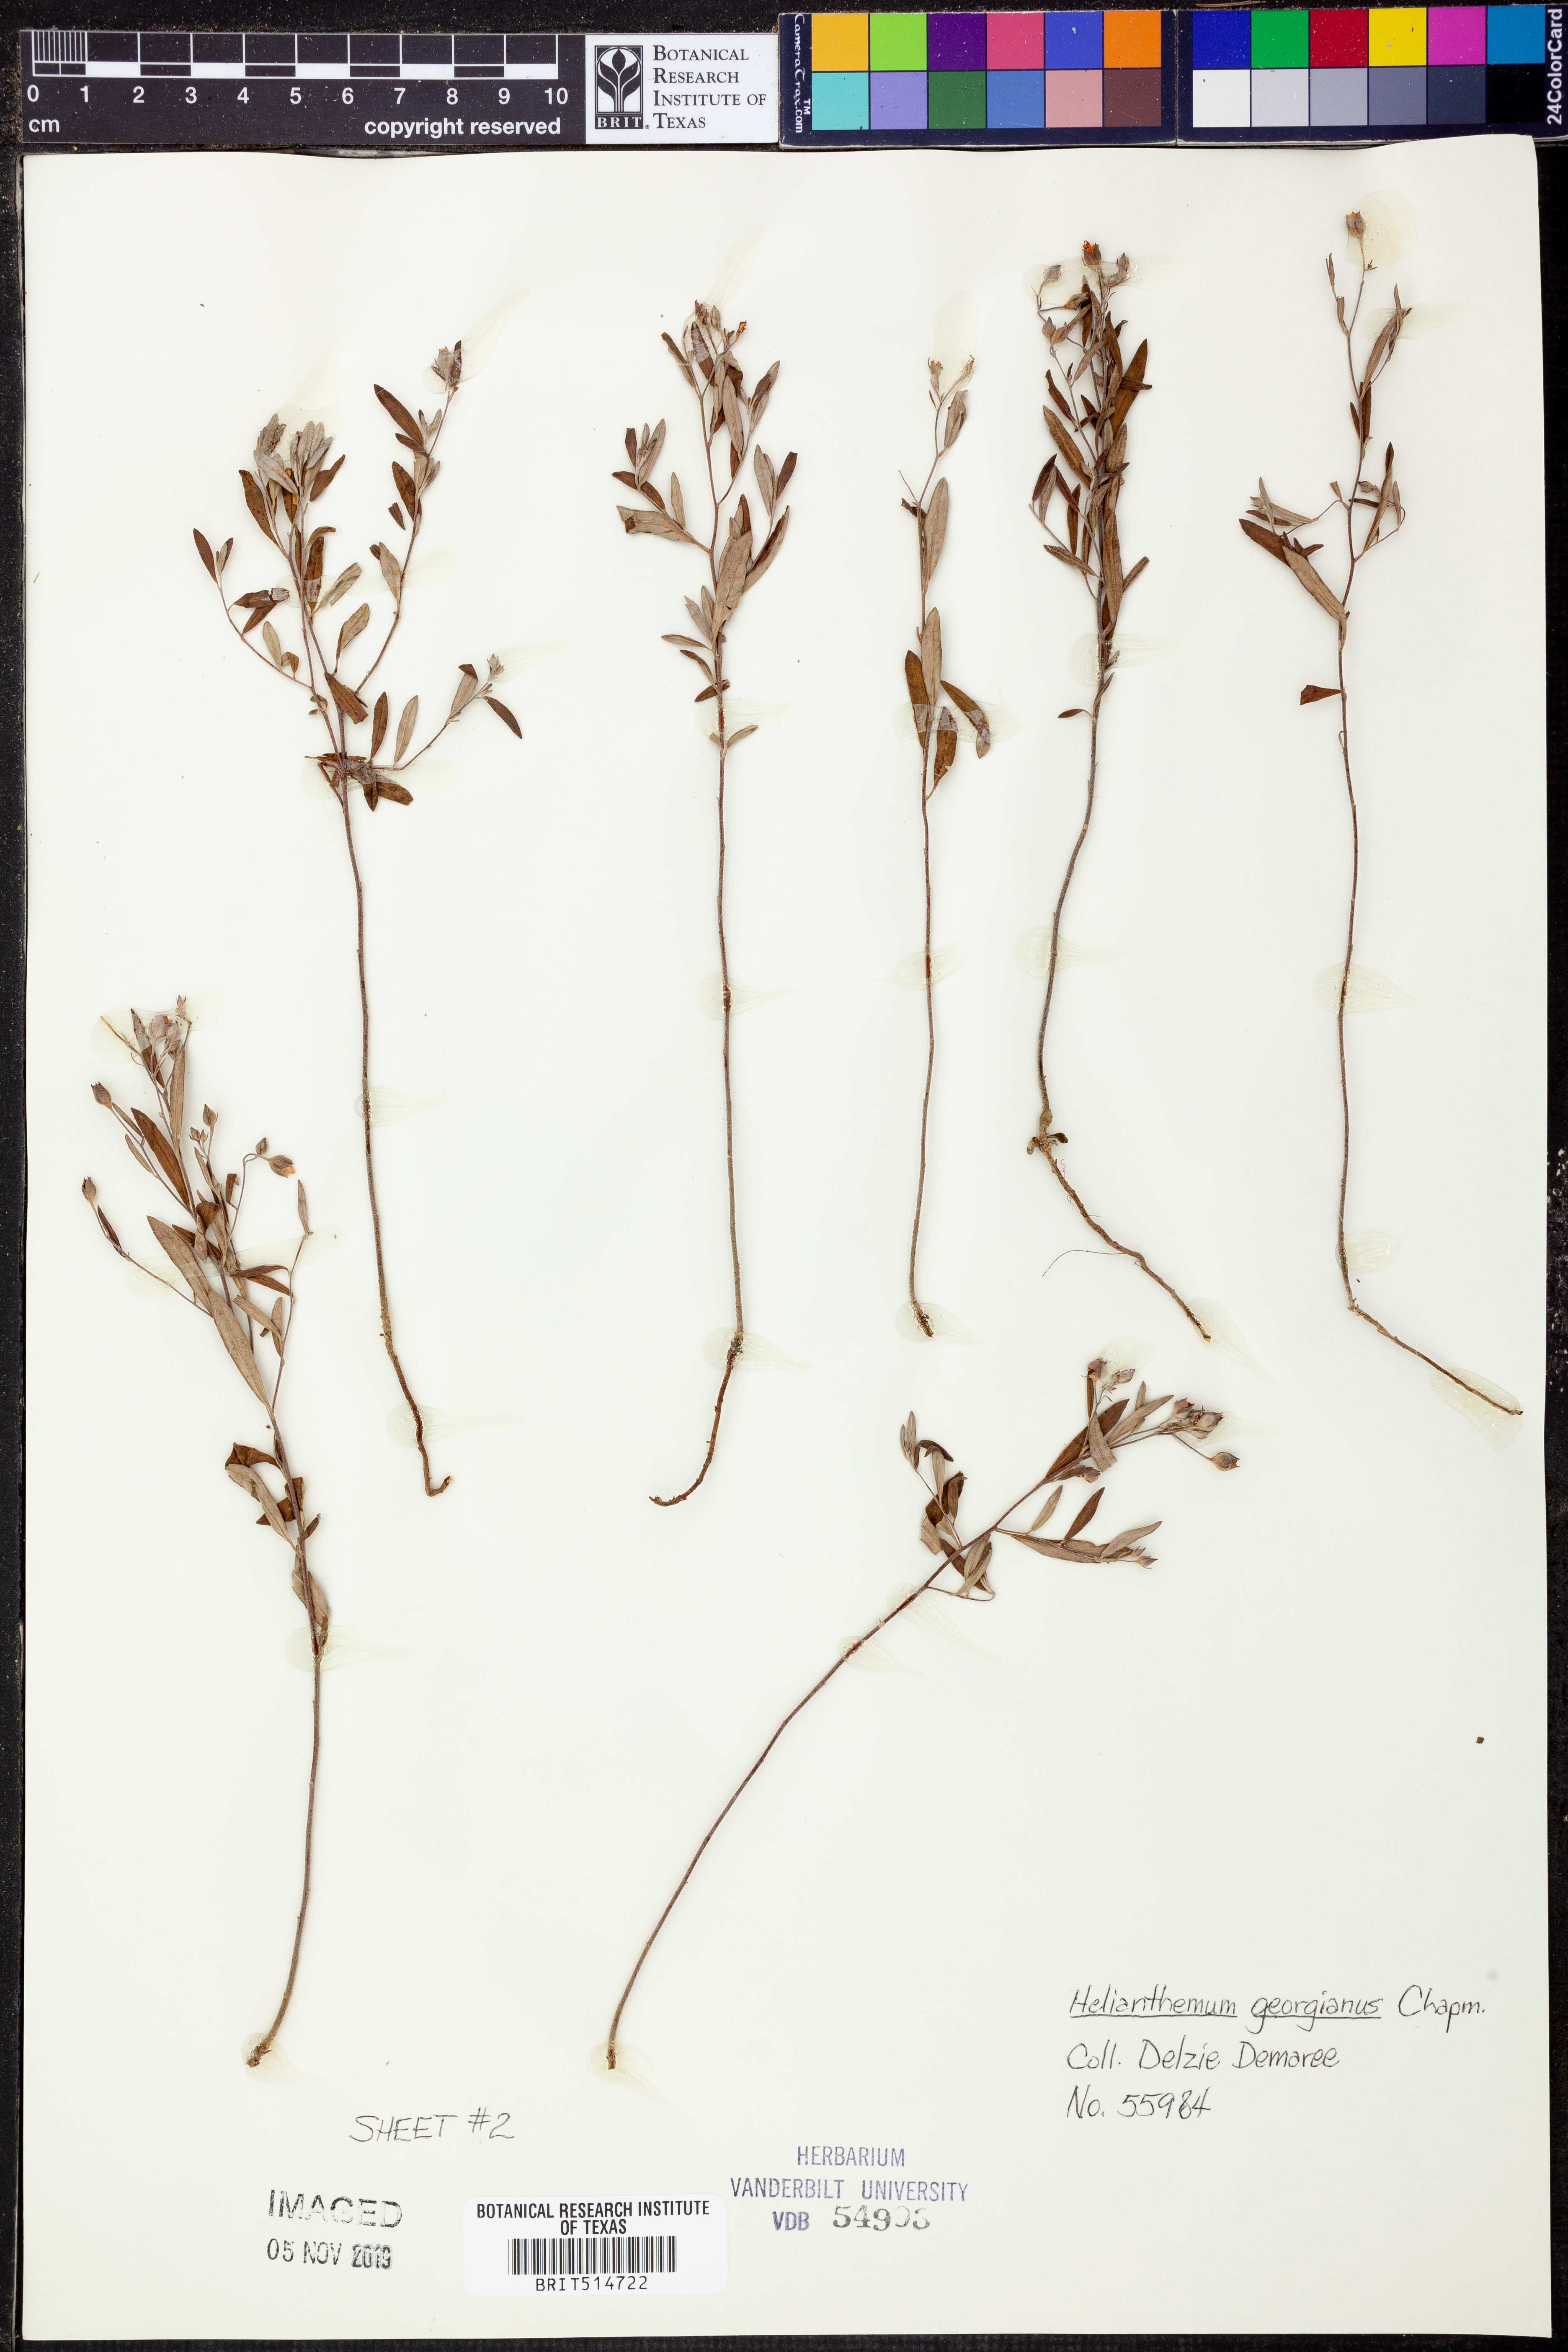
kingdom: Plantae
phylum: Tracheophyta
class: Magnoliopsida
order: Malvales
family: Cistaceae
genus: Crocanthemum
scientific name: Crocanthemum georgianum
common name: Georgia frostweed
